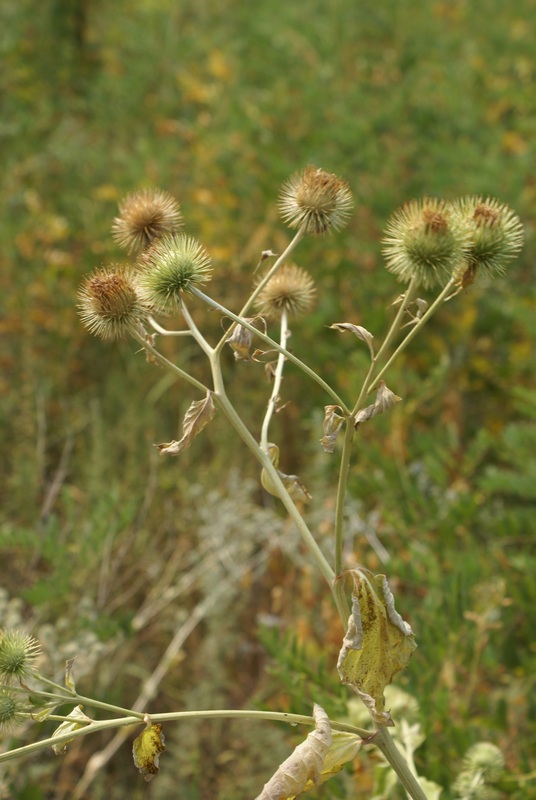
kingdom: Plantae
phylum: Tracheophyta
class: Magnoliopsida
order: Asterales
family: Asteraceae
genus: Arctium
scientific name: Arctium lappa
